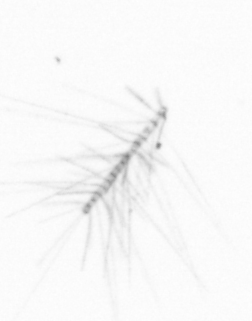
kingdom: Chromista
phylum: Ochrophyta
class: Bacillariophyceae
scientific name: Bacillariophyceae
